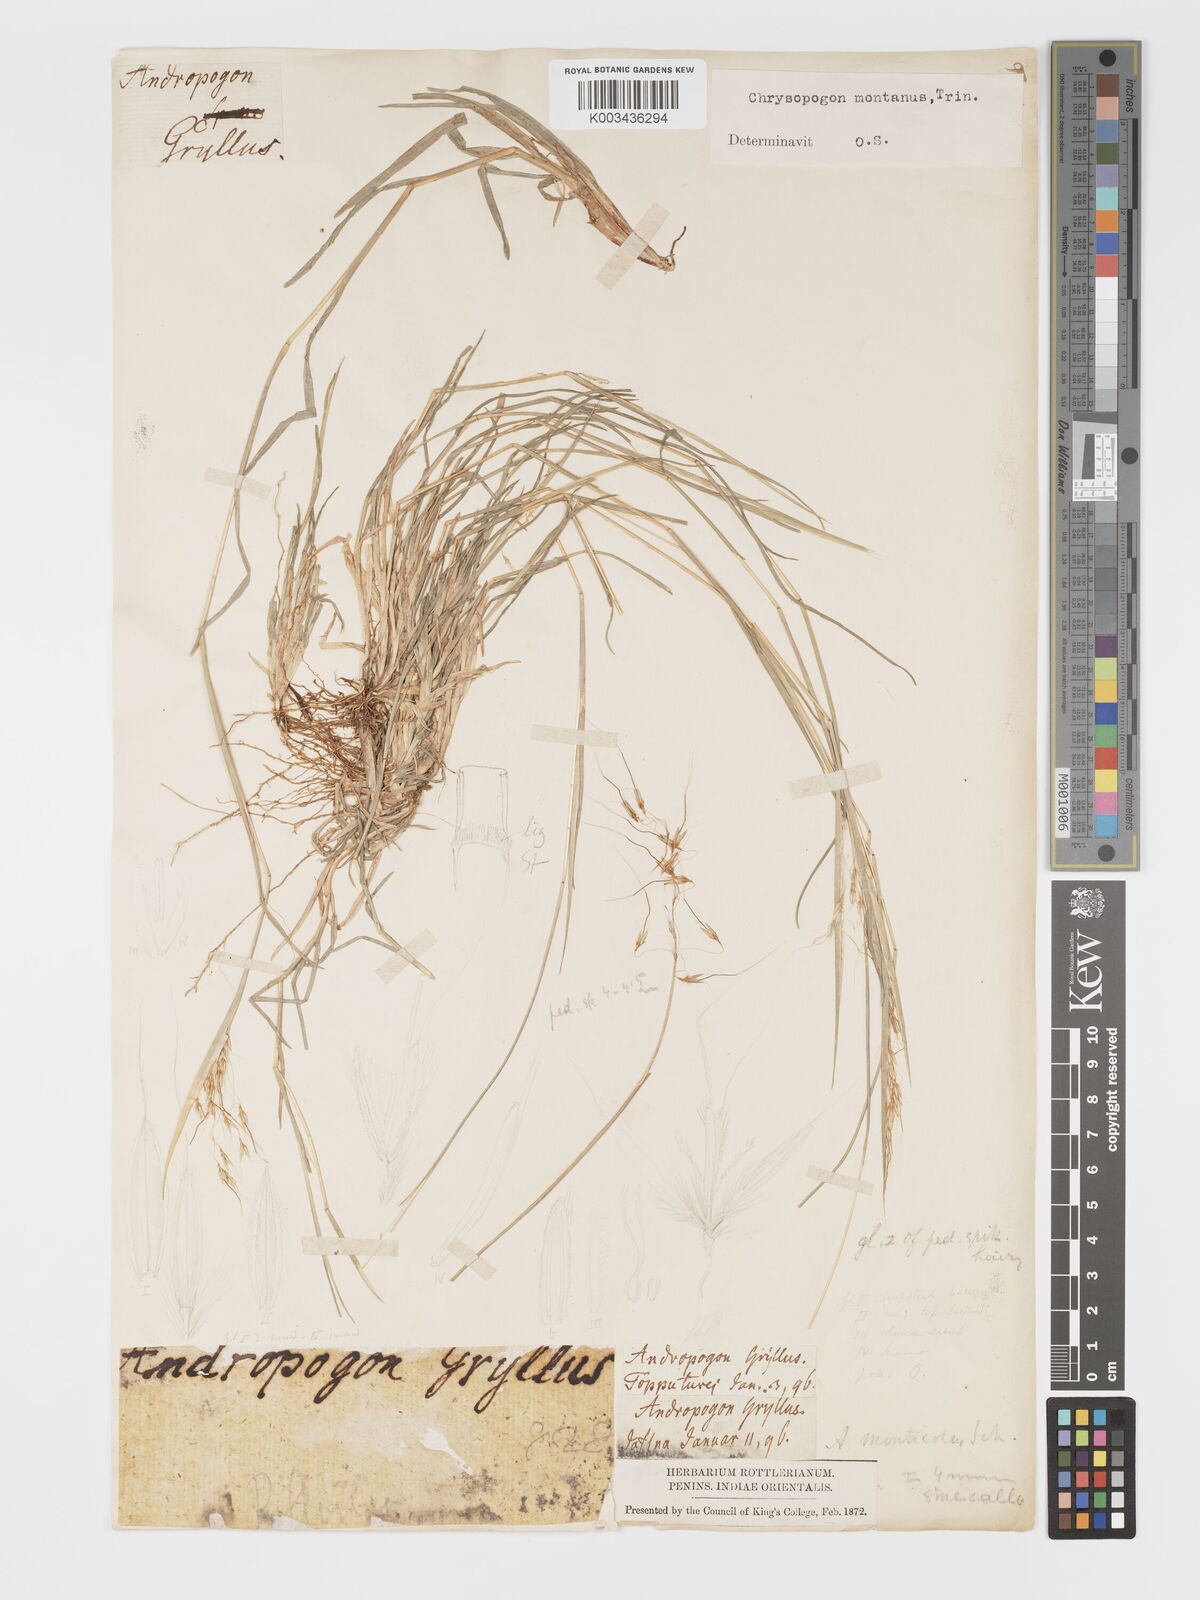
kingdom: Plantae
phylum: Tracheophyta
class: Liliopsida
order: Poales
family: Poaceae
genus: Chrysopogon
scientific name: Chrysopogon fulvus
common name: Red false beardgrass
